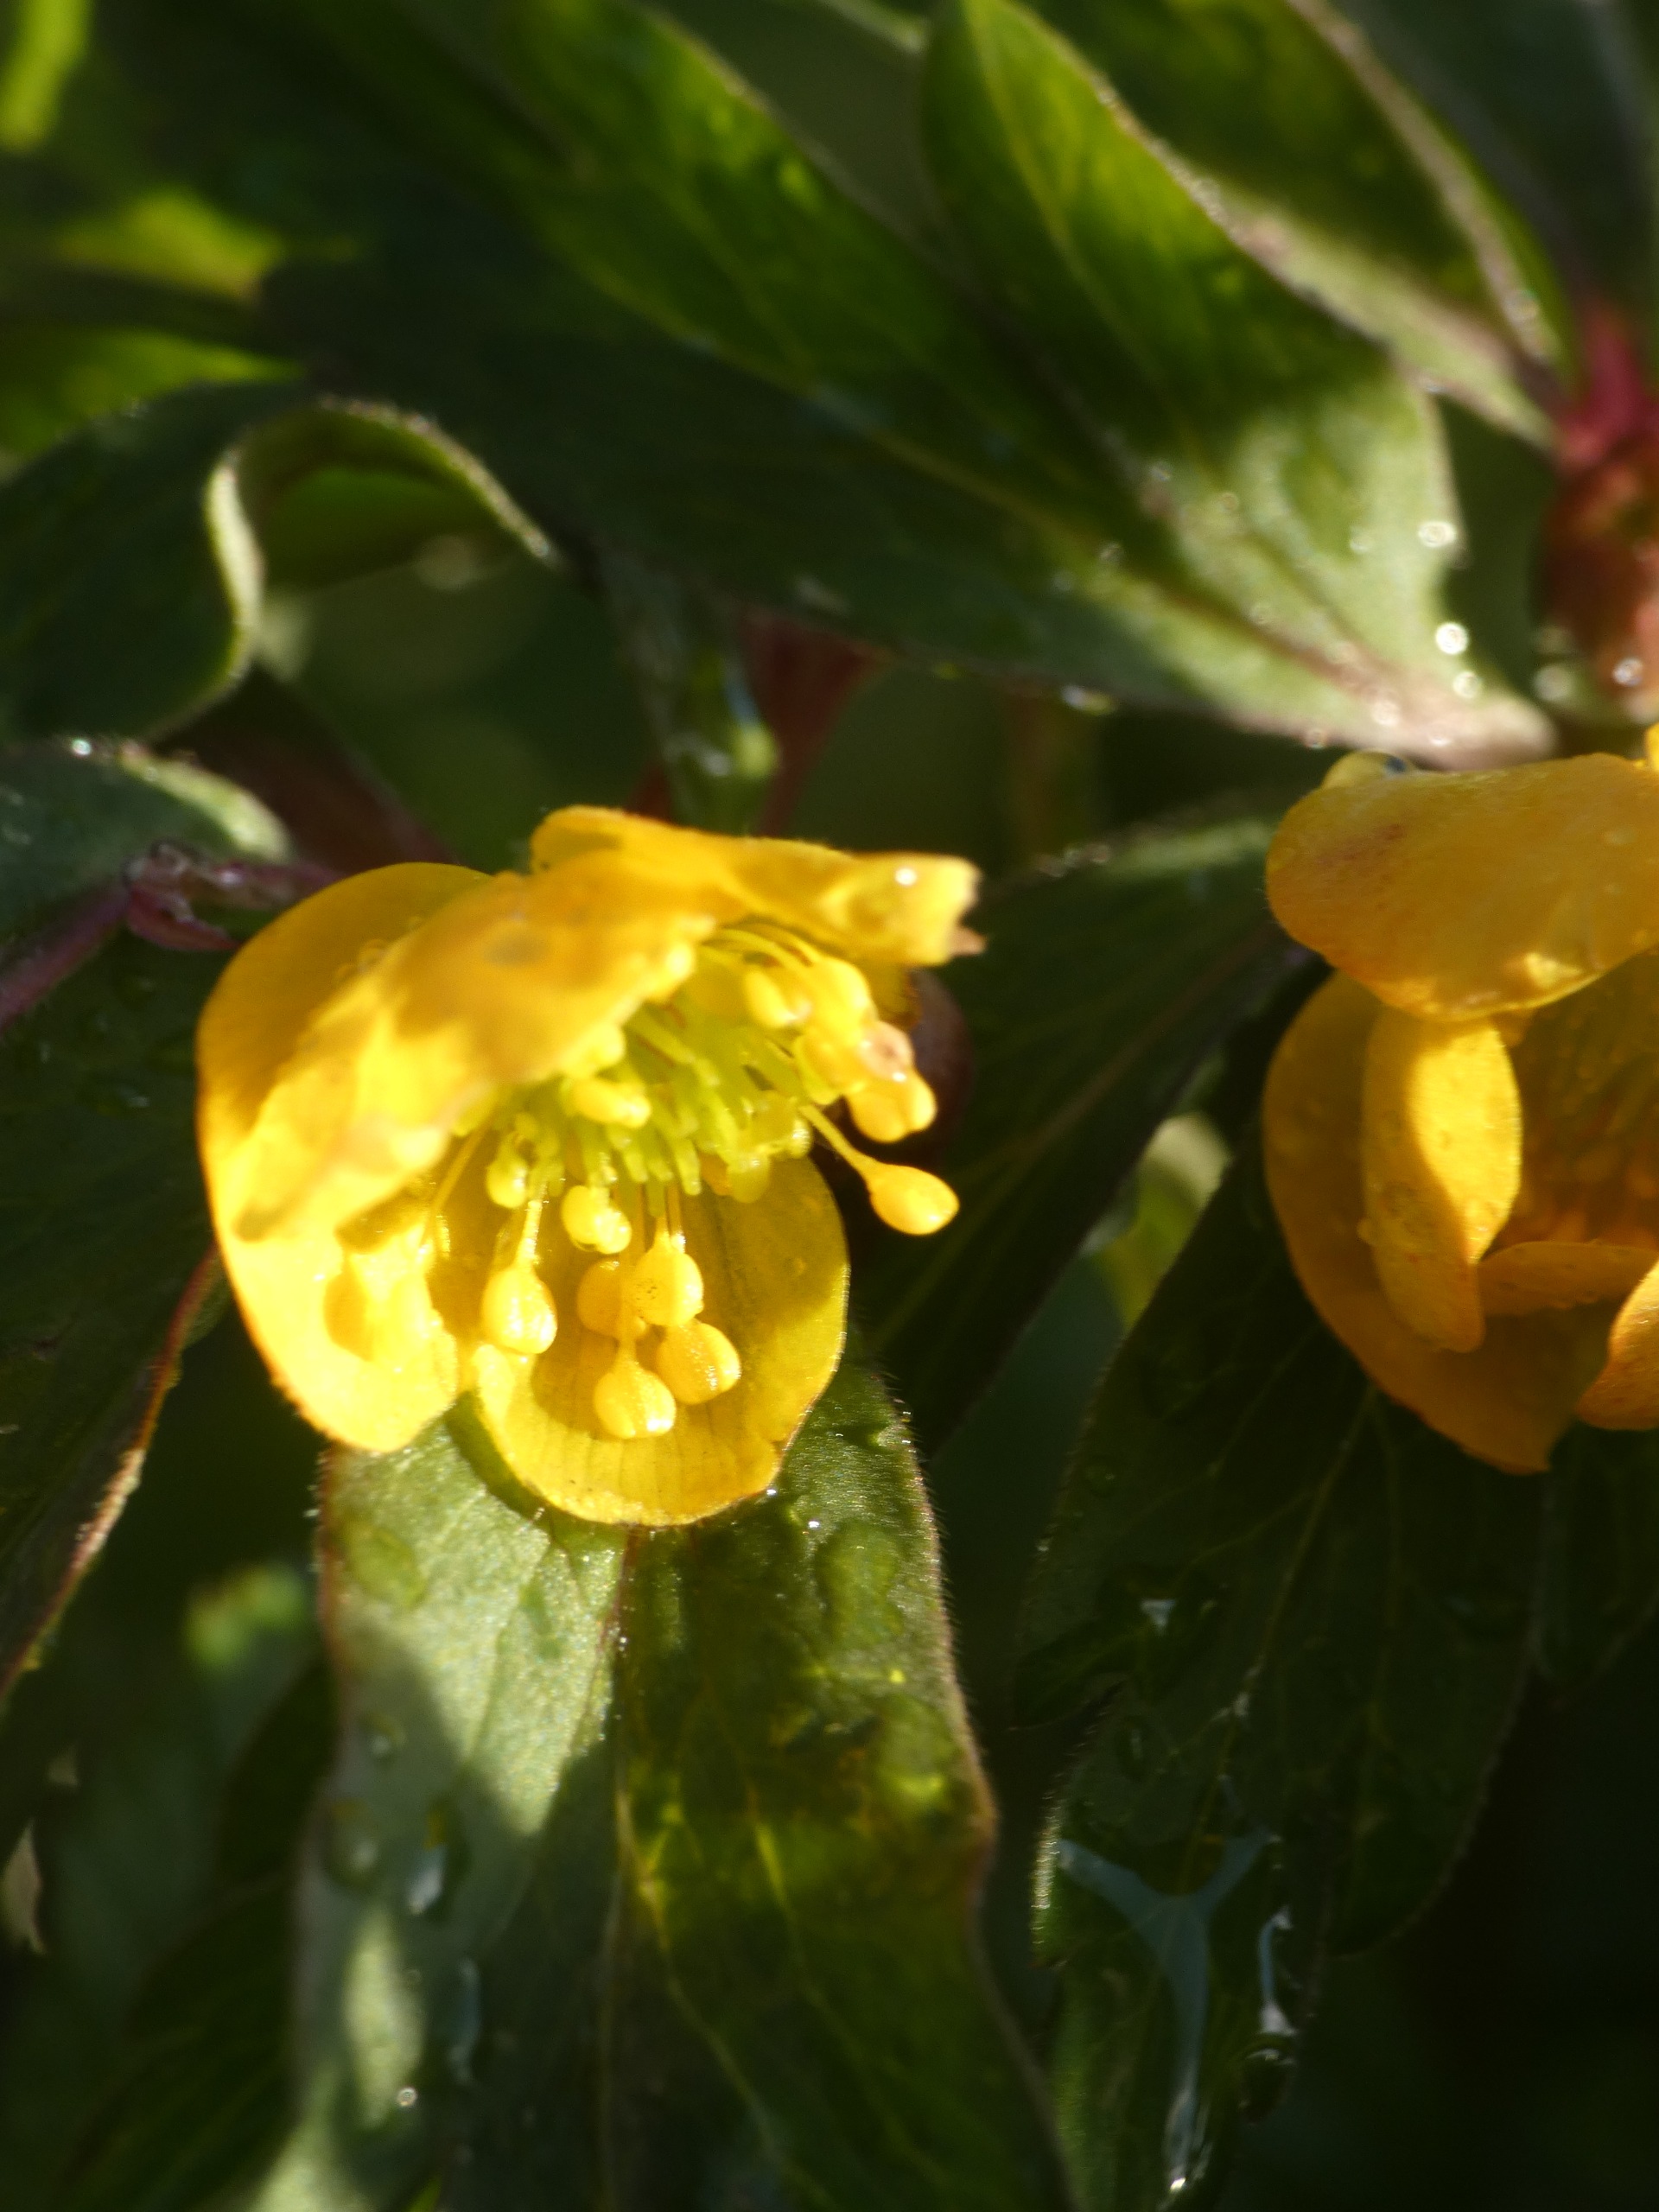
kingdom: Plantae
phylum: Tracheophyta
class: Magnoliopsida
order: Ranunculales
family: Ranunculaceae
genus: Anemone
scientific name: Anemone ranunculoides
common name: Gul anemone
